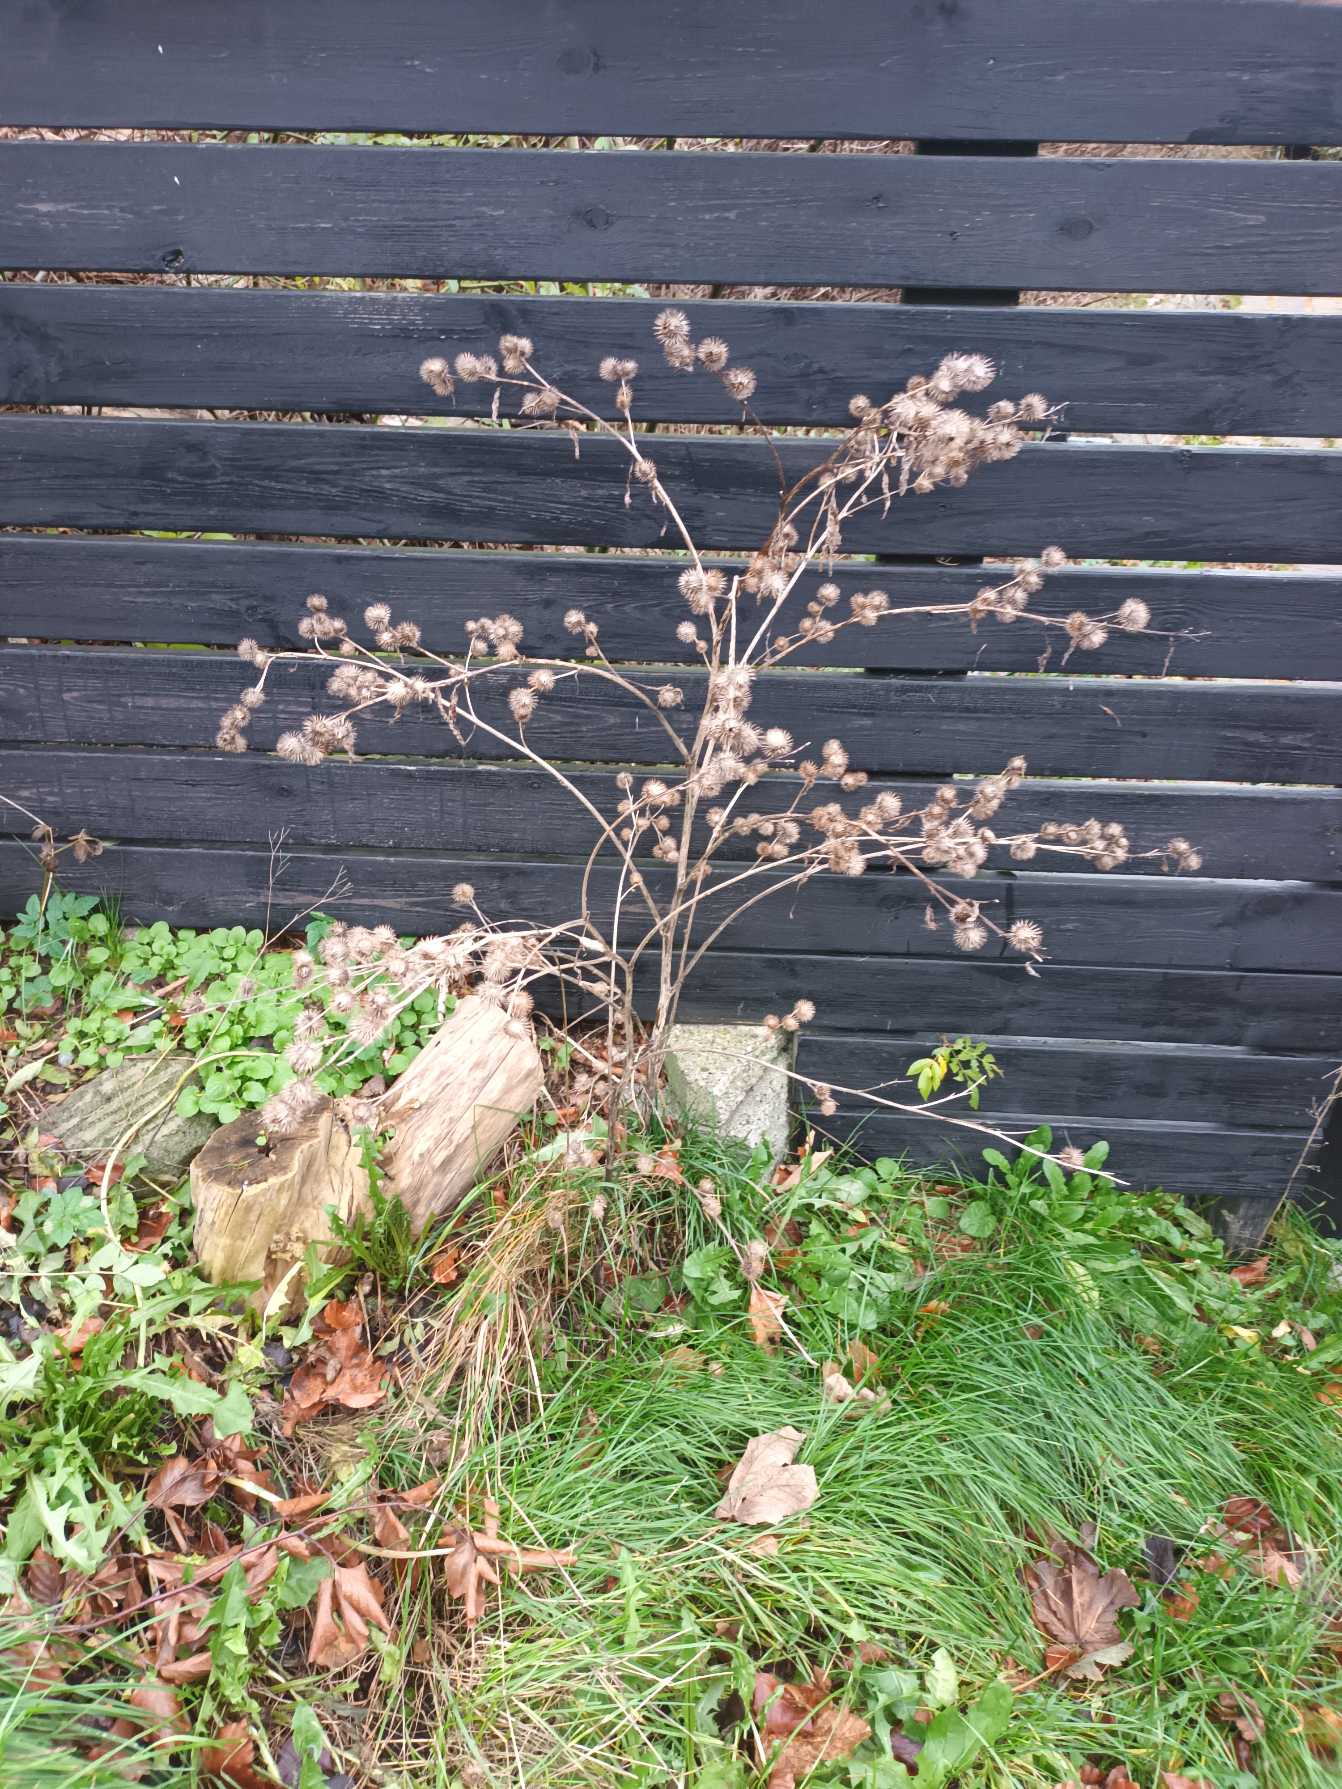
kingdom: Plantae
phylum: Tracheophyta
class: Magnoliopsida
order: Asterales
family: Asteraceae
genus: Arctium
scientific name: Arctium nemorosum
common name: Skov-burre
